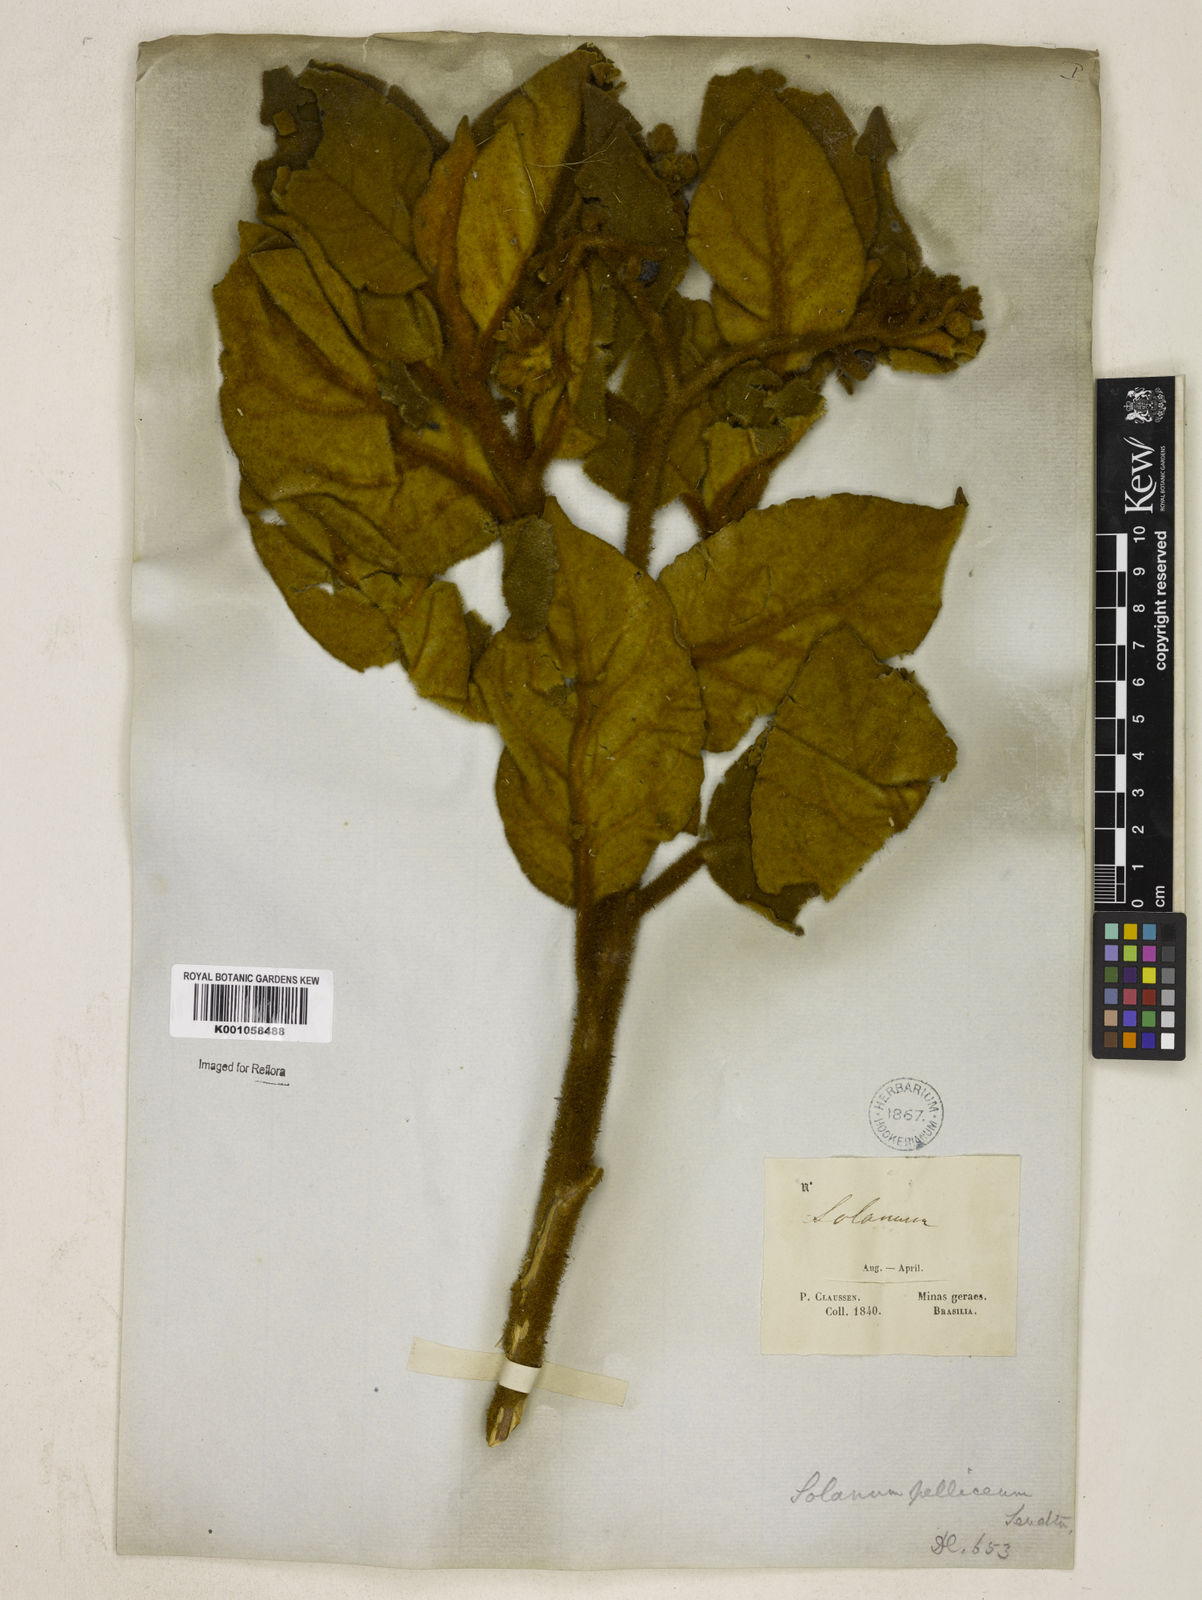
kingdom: Plantae
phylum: Tracheophyta
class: Magnoliopsida
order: Solanales
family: Solanaceae
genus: Solanum
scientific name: Solanum velleum
